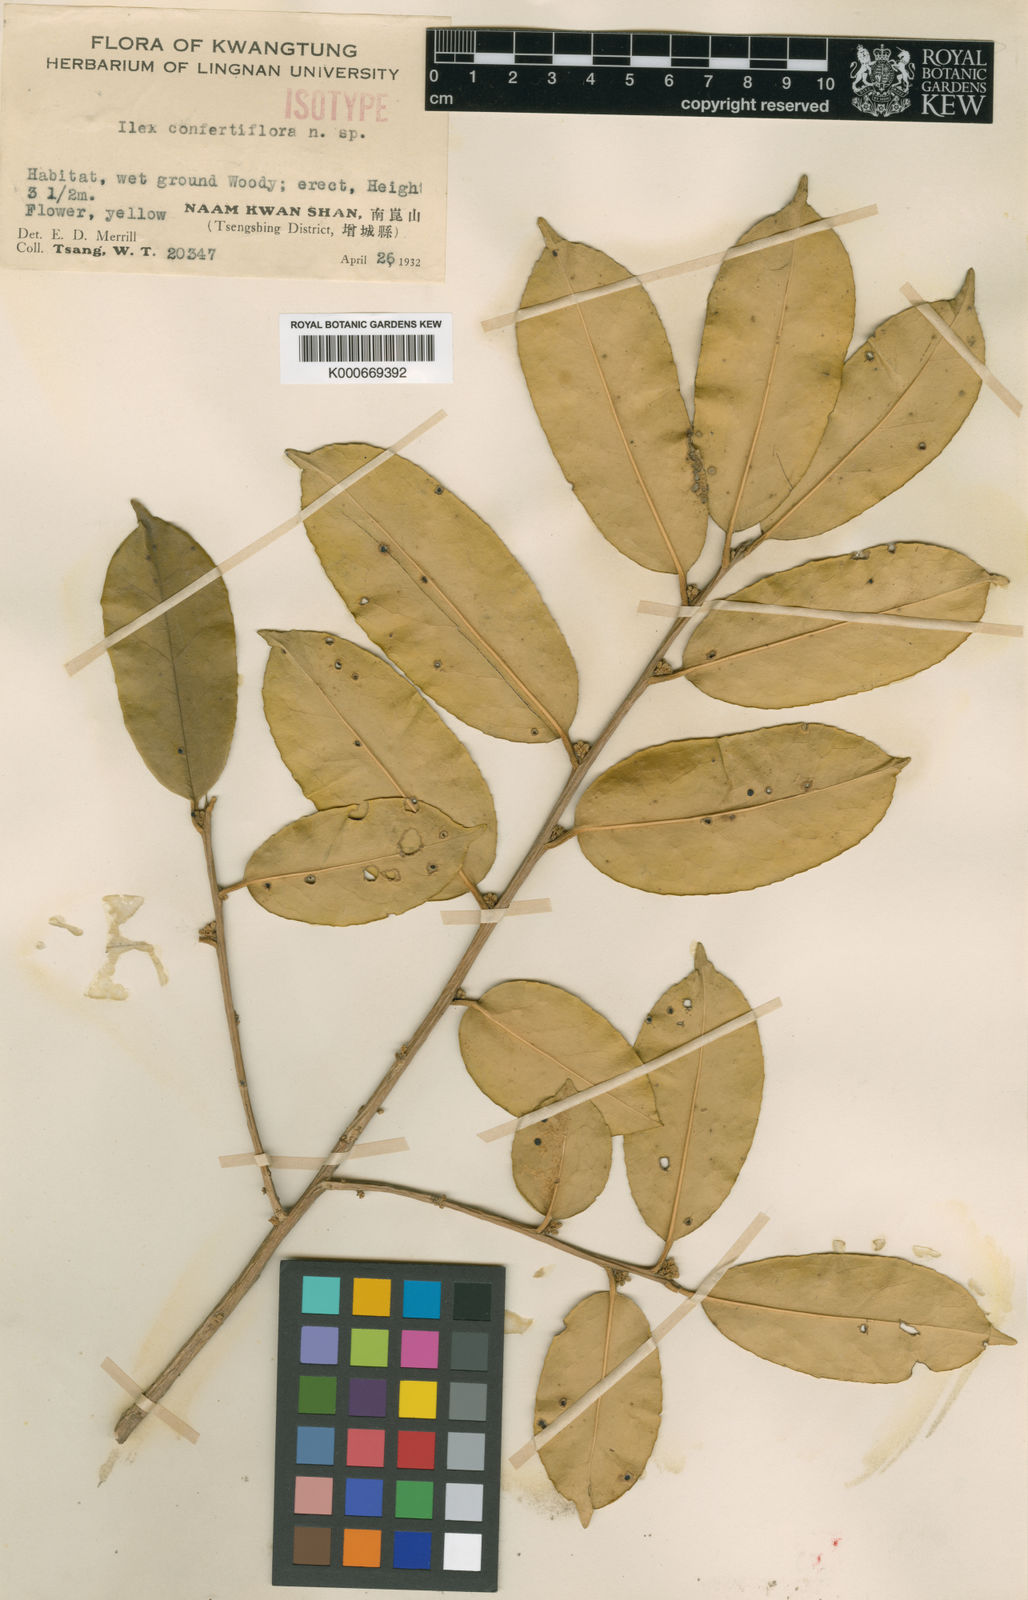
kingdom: Plantae
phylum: Tracheophyta
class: Magnoliopsida
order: Aquifoliales
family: Aquifoliaceae
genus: Ilex
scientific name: Ilex confertiflora
